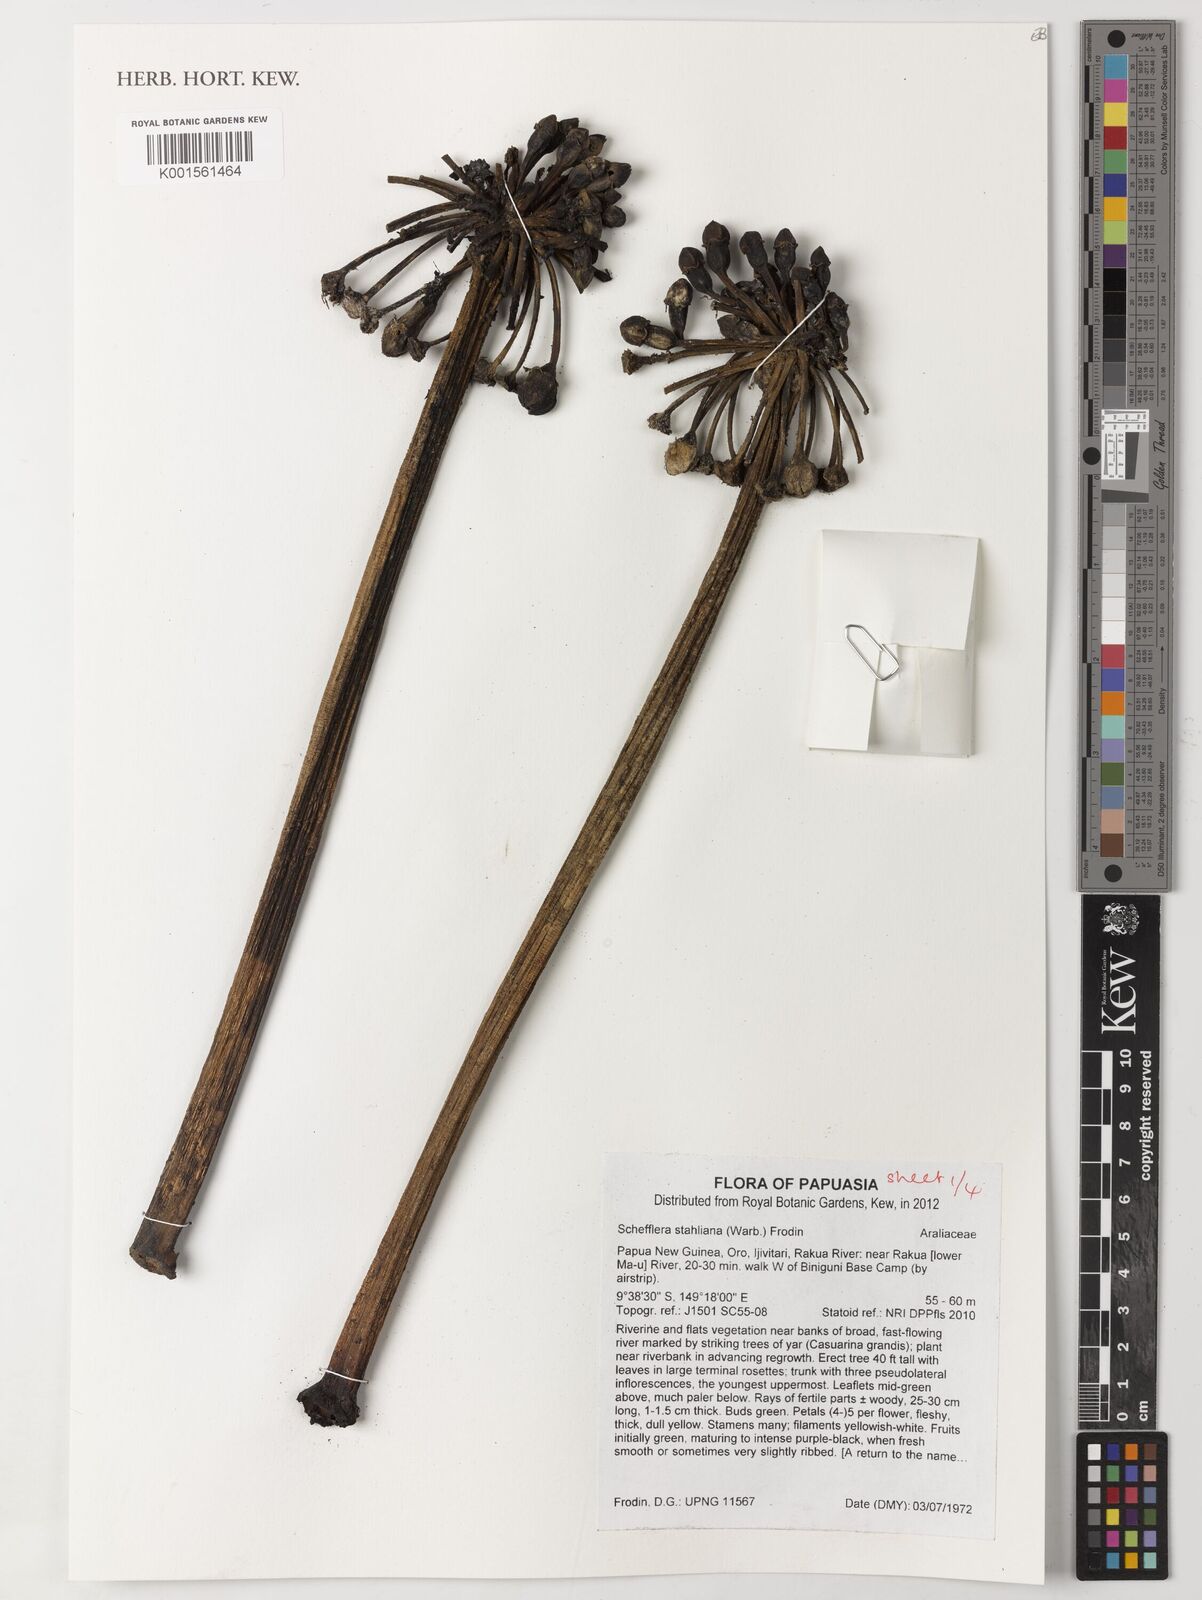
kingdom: Plantae
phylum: Tracheophyta
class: Magnoliopsida
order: Apiales
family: Araliaceae
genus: Plerandra
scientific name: Plerandra stahliana
